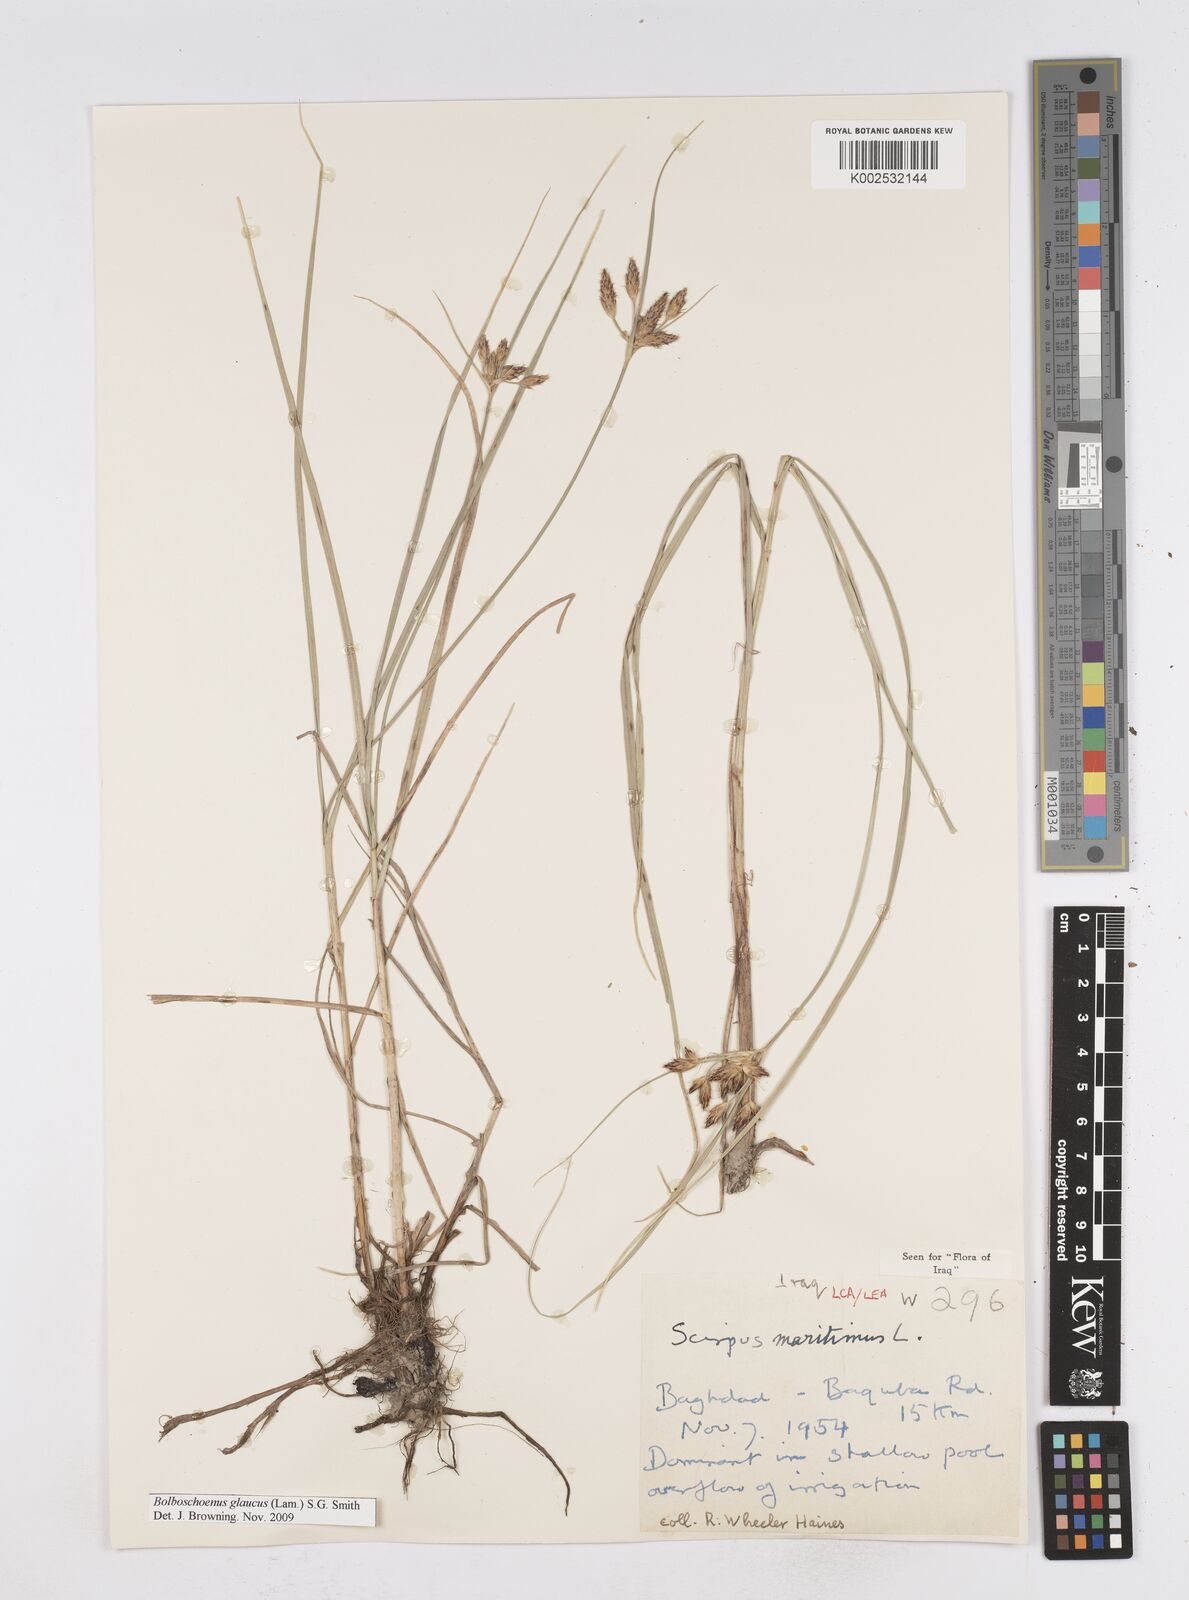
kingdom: Plantae
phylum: Tracheophyta
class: Liliopsida
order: Poales
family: Cyperaceae
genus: Bolboschoenus
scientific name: Bolboschoenus maritimus
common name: Sea club-rush
